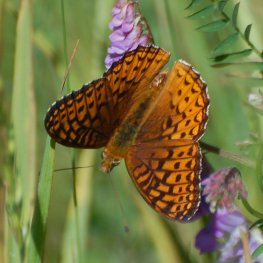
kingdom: Animalia
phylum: Arthropoda
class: Insecta
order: Lepidoptera
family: Nymphalidae
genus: Speyeria
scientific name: Speyeria atlantis
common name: Atlantis Fritillary
